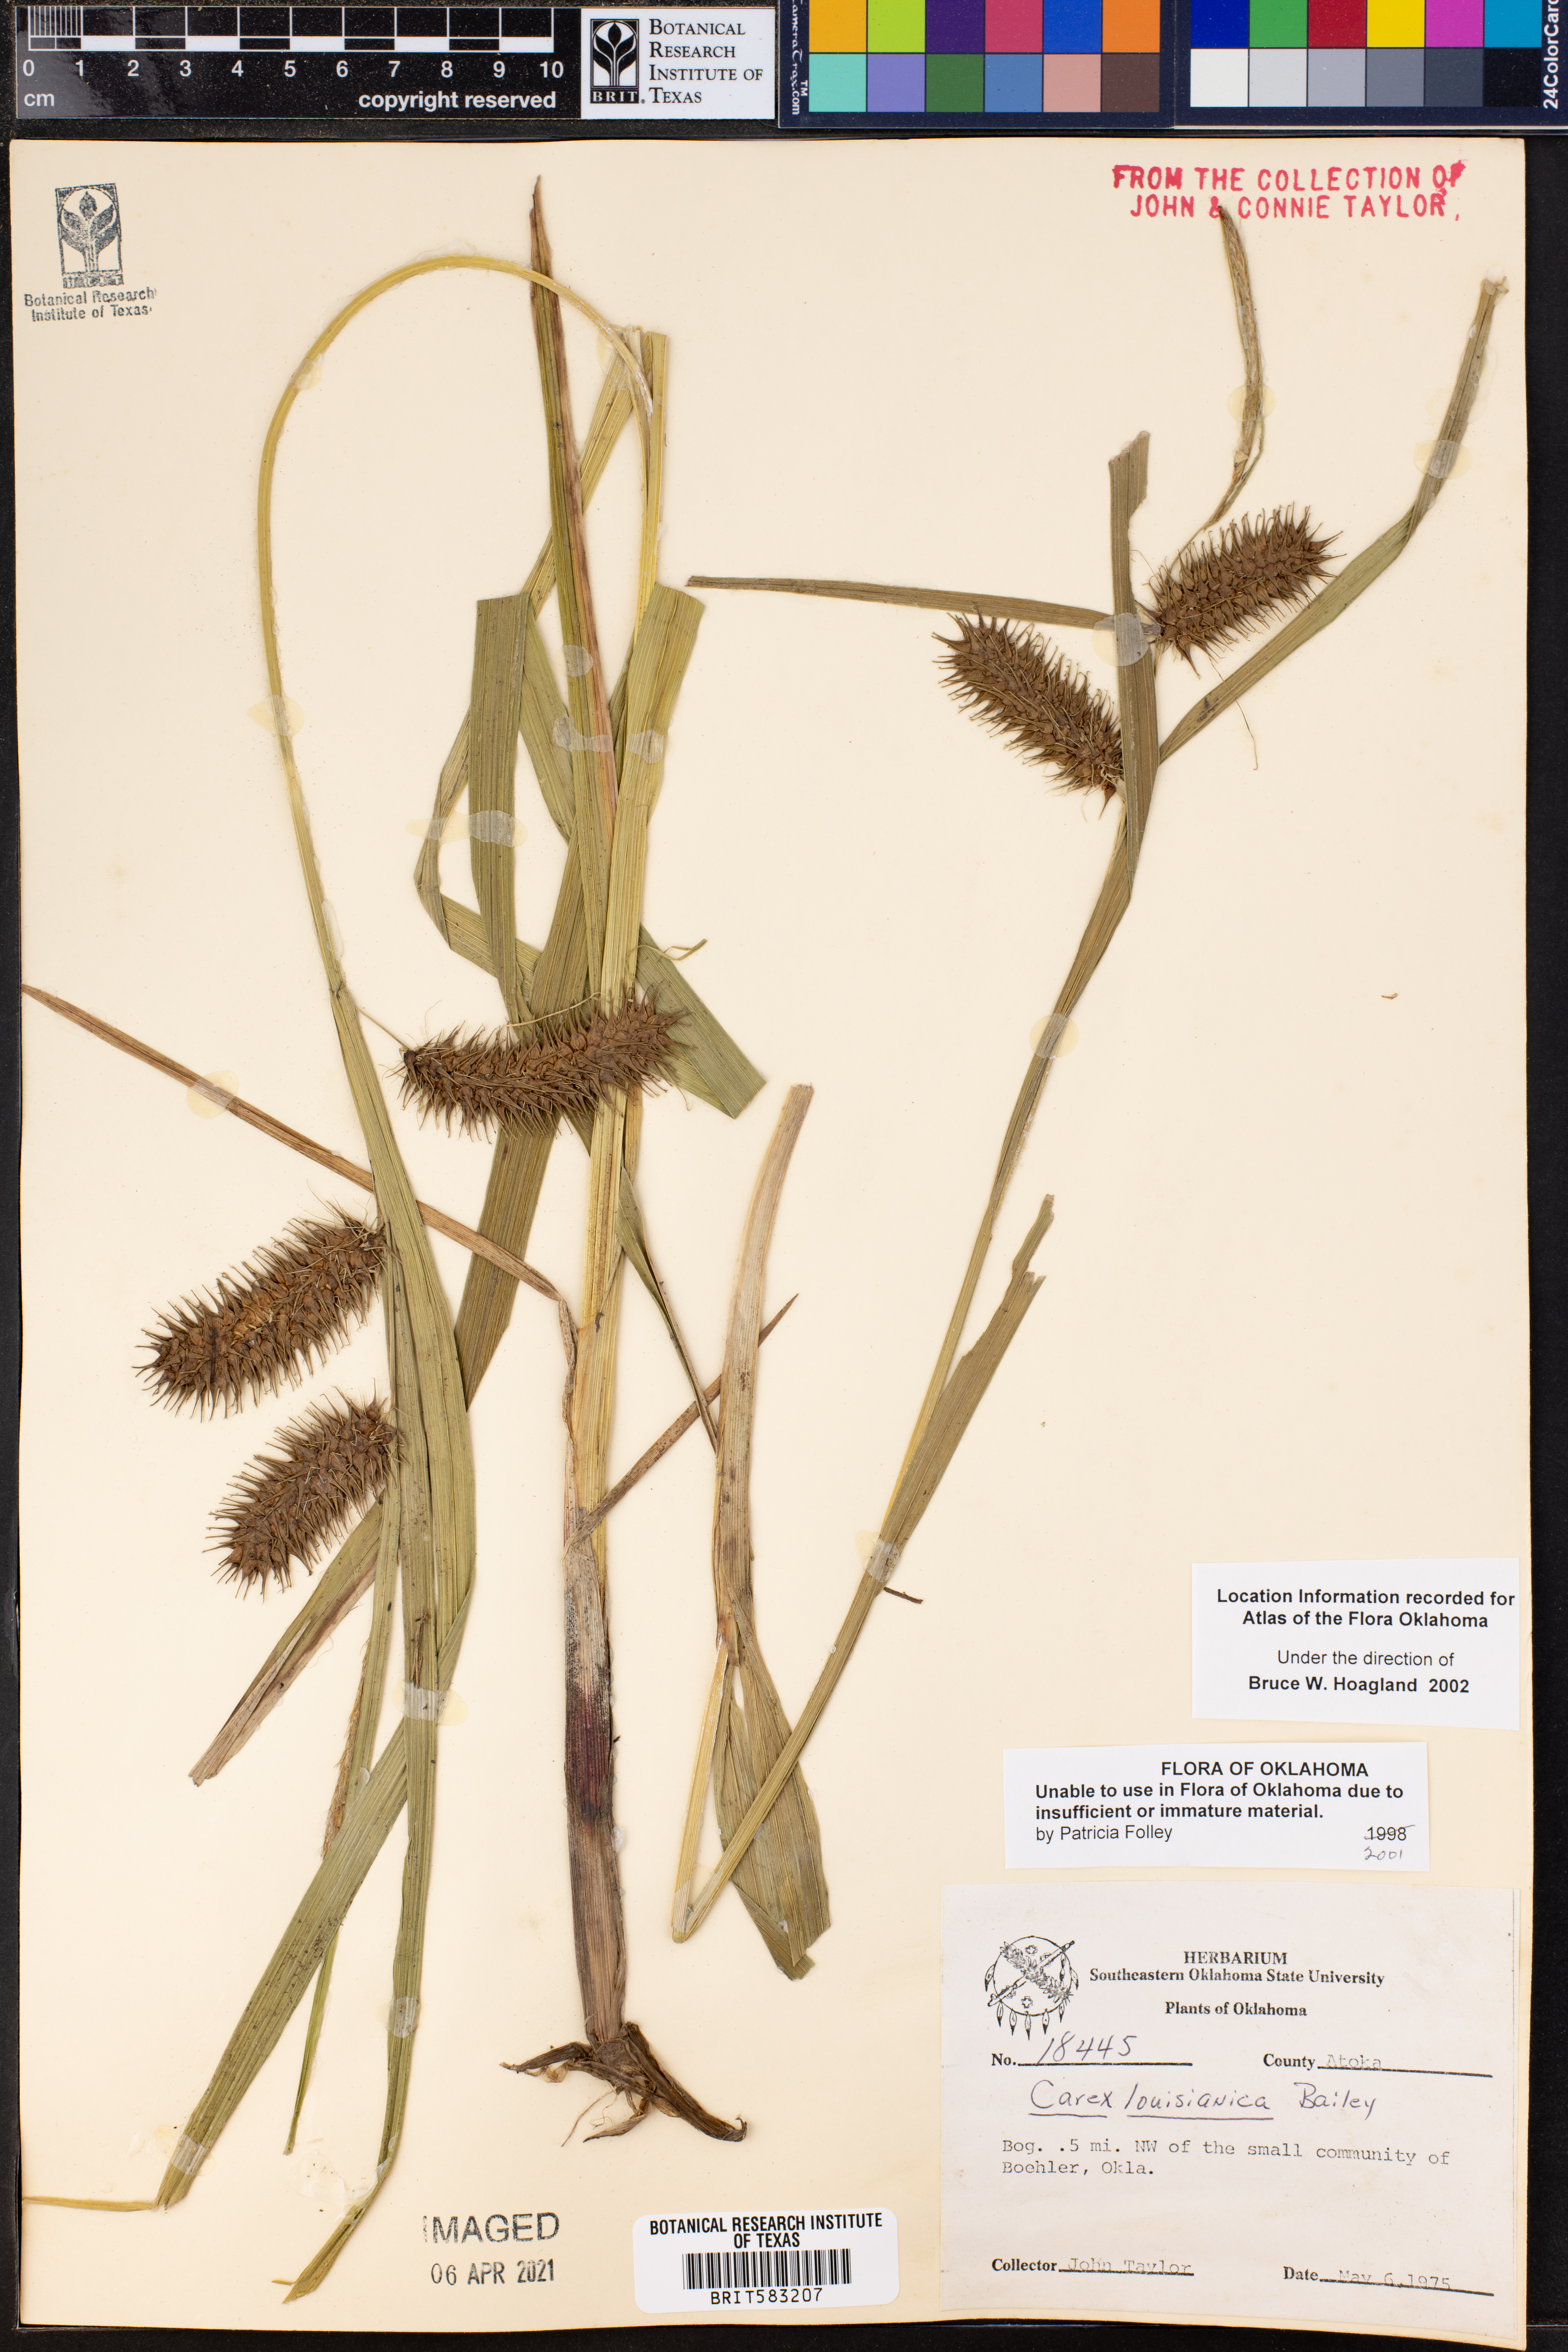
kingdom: Plantae
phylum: Tracheophyta
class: Liliopsida
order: Poales
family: Cyperaceae
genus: Carex
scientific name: Carex louisianica
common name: Louisiana sedge
